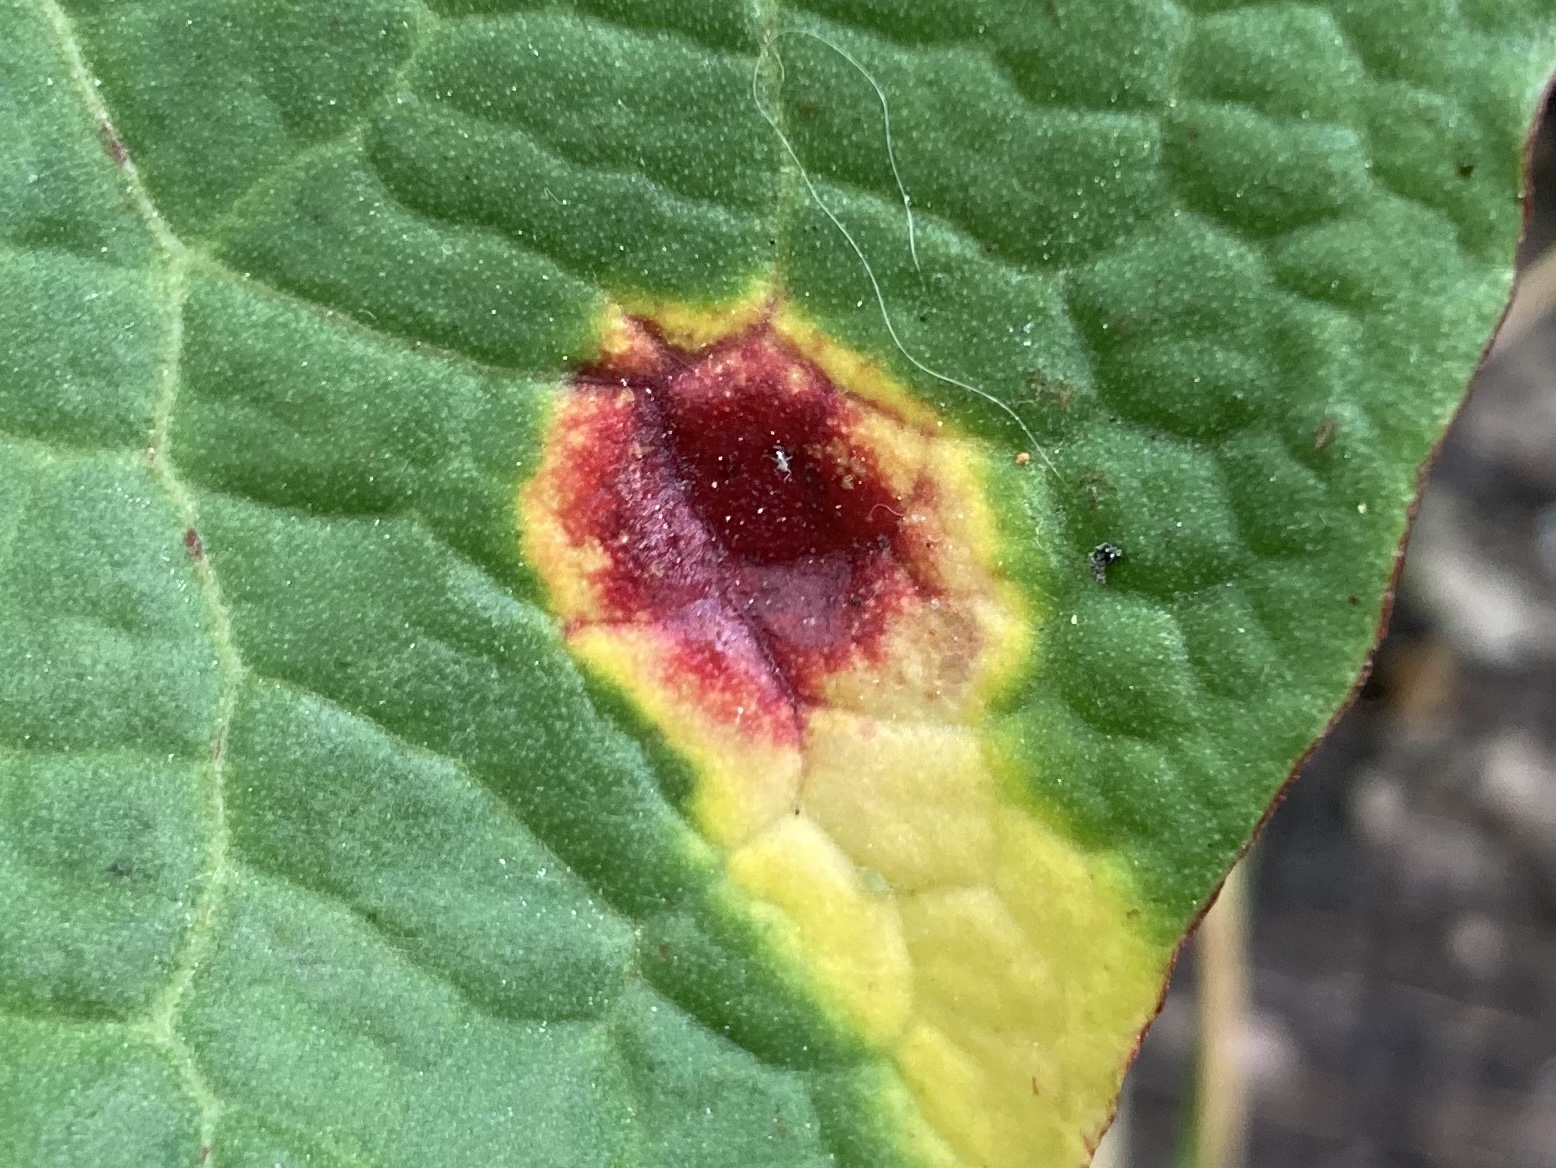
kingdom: Fungi
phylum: Basidiomycota
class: Pucciniomycetes
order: Pucciniales
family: Pucciniaceae
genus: Puccinia
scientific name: Puccinia phragmitis
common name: tagrør-tvecellerust
